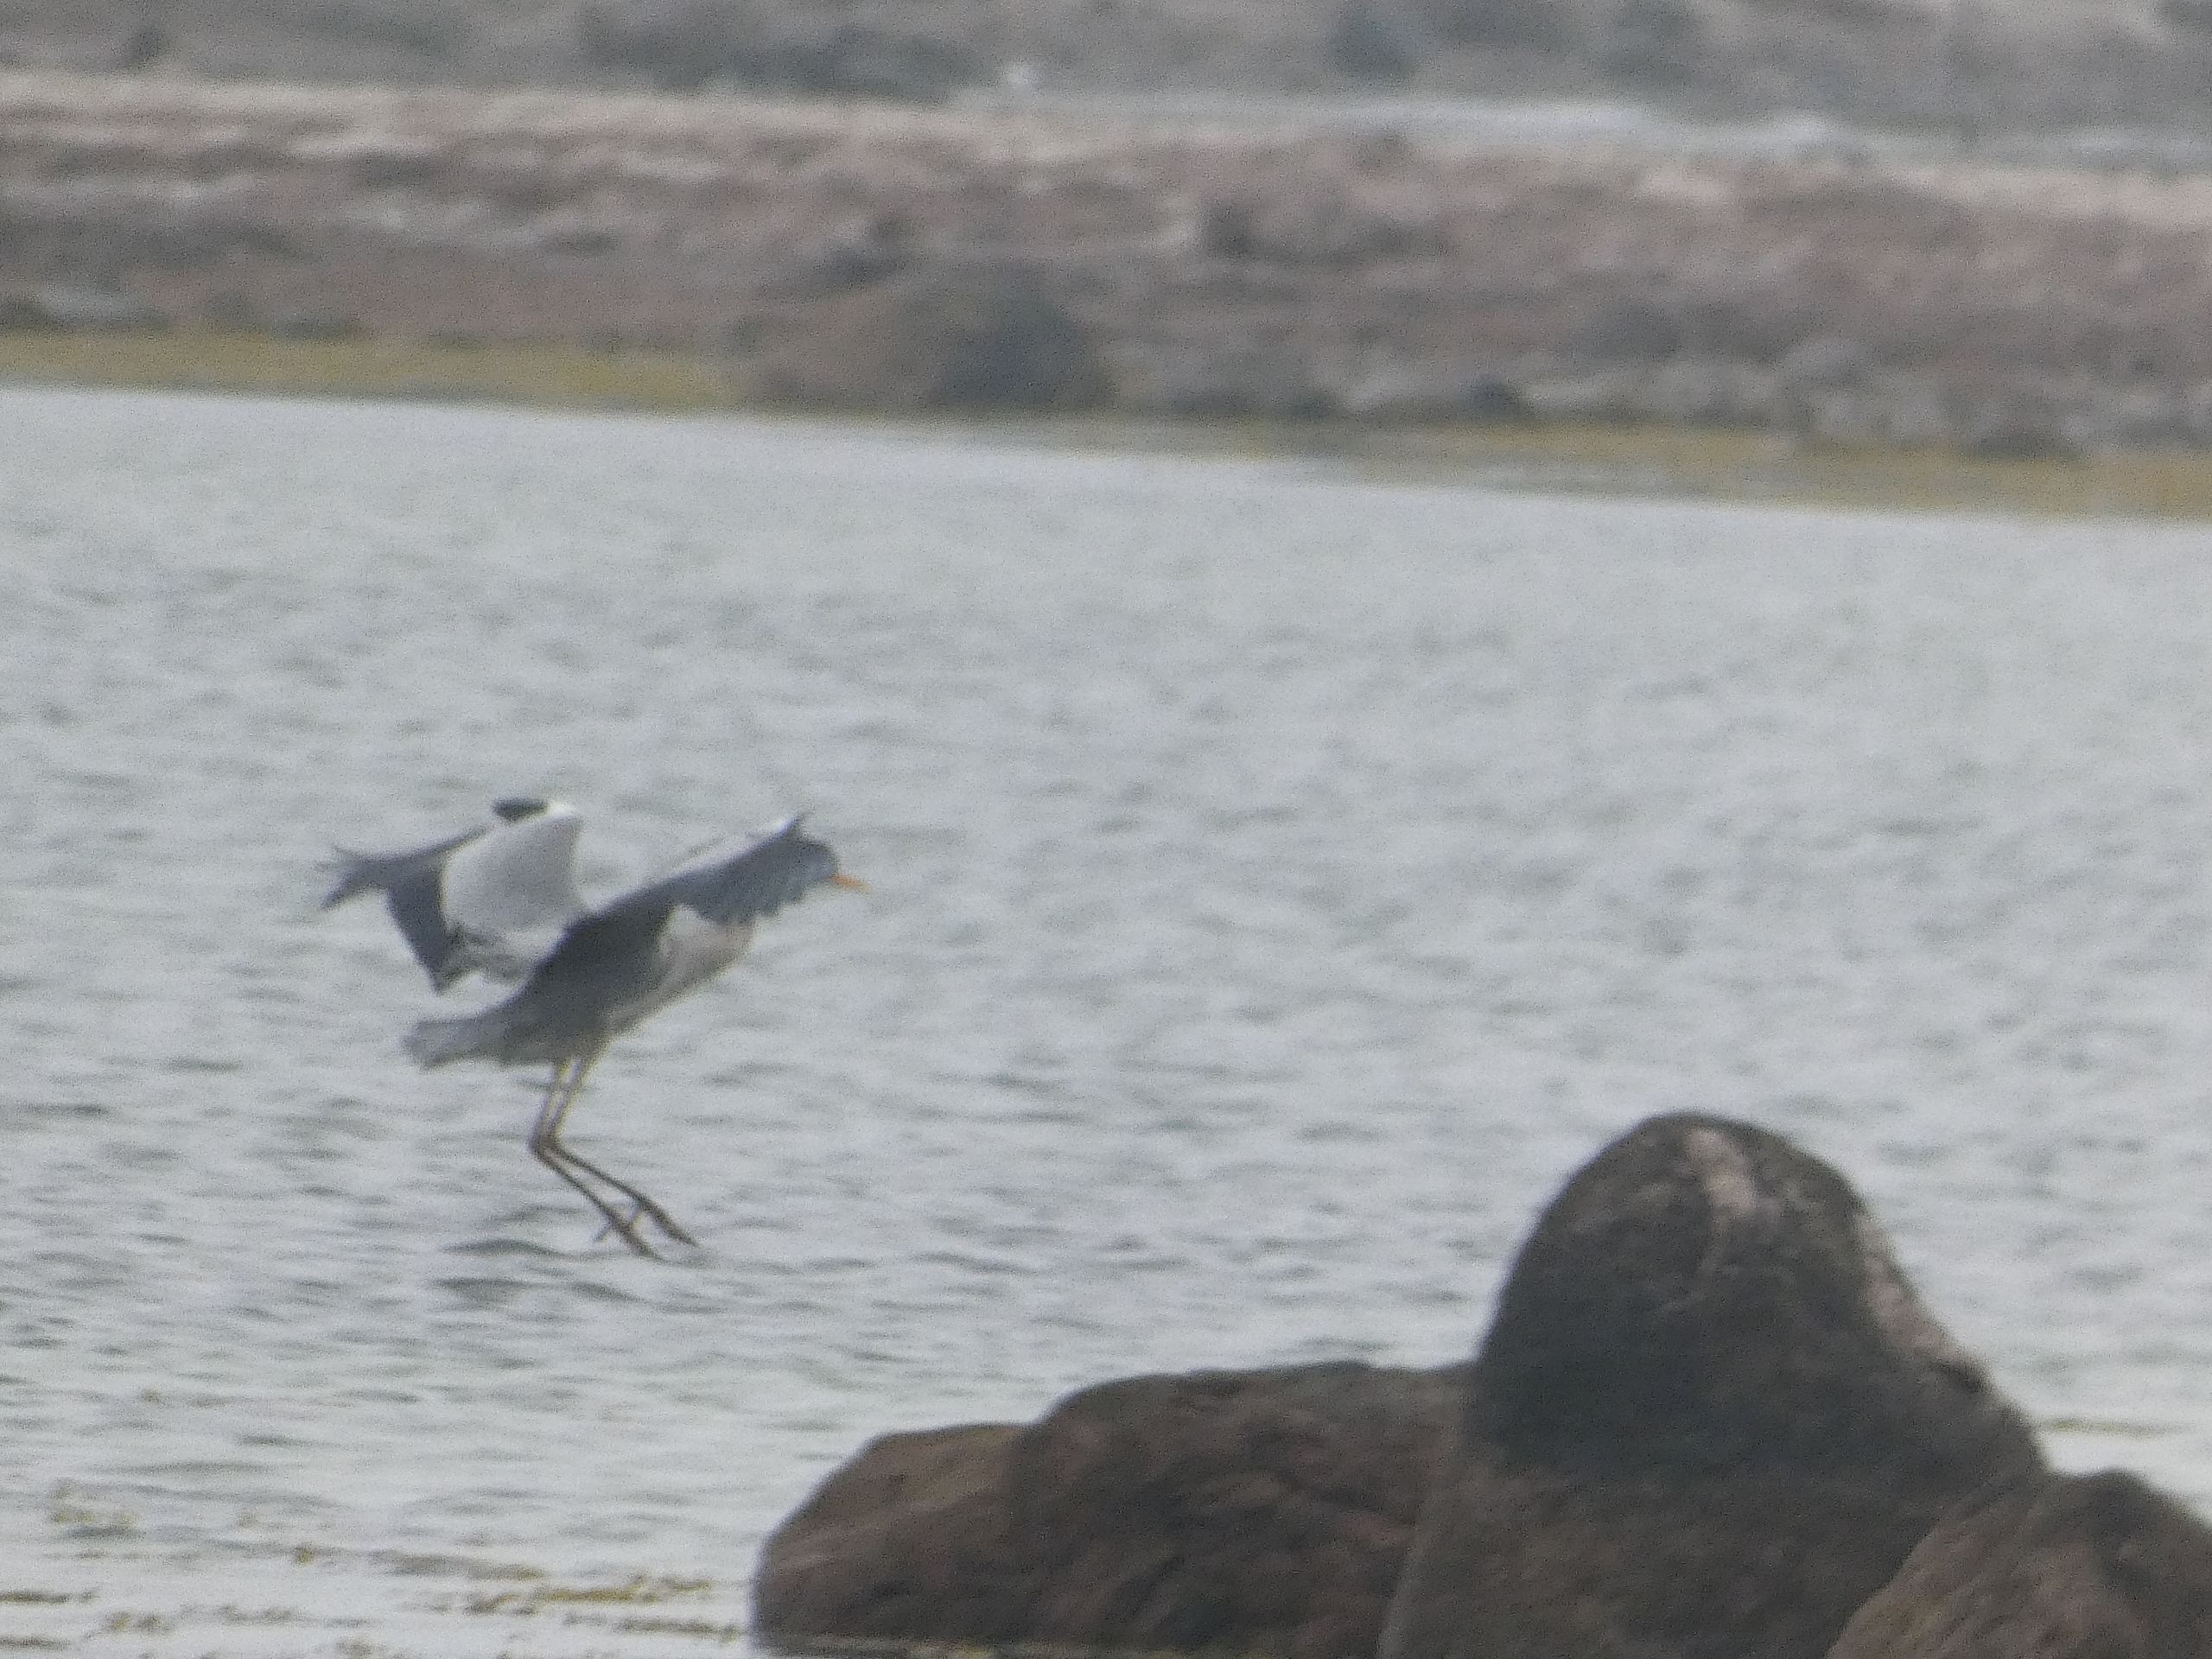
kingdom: Animalia
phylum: Chordata
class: Aves
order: Pelecaniformes
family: Ardeidae
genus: Ardea
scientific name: Ardea cinerea
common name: Fiskehejre
